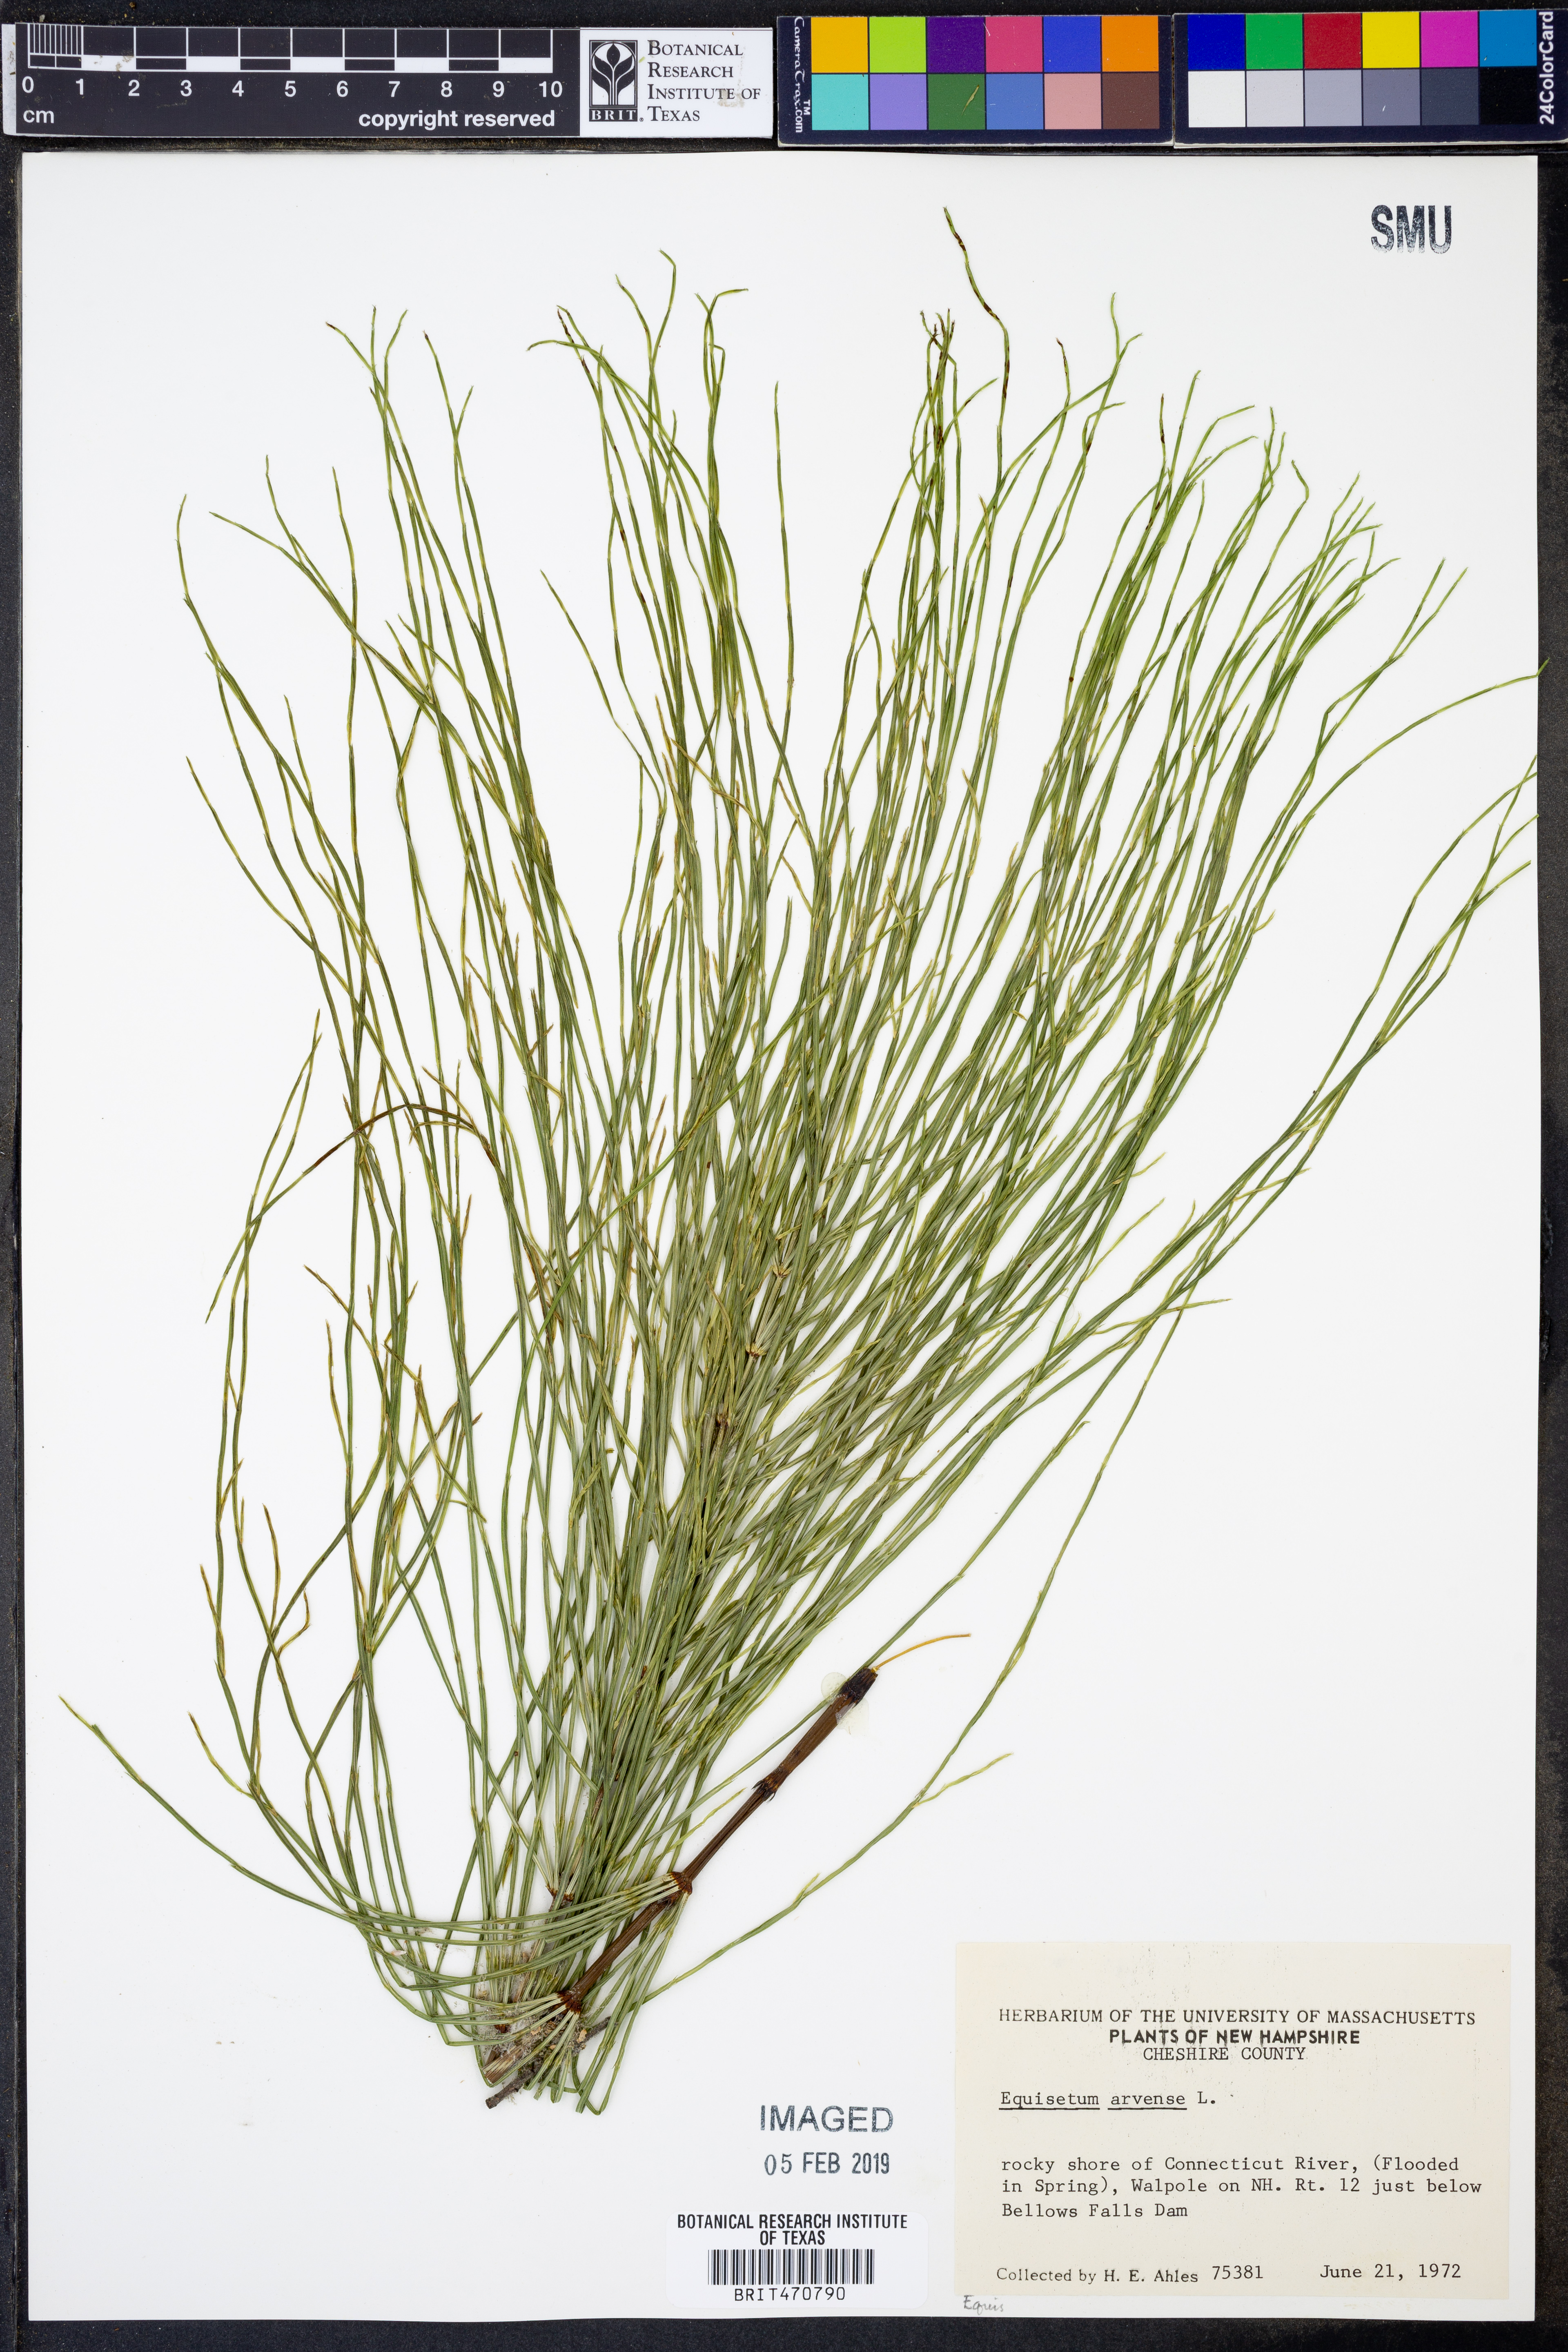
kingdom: Plantae
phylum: Tracheophyta
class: Polypodiopsida
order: Equisetales
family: Equisetaceae
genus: Equisetum
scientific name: Equisetum arvense
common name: Field horsetail
